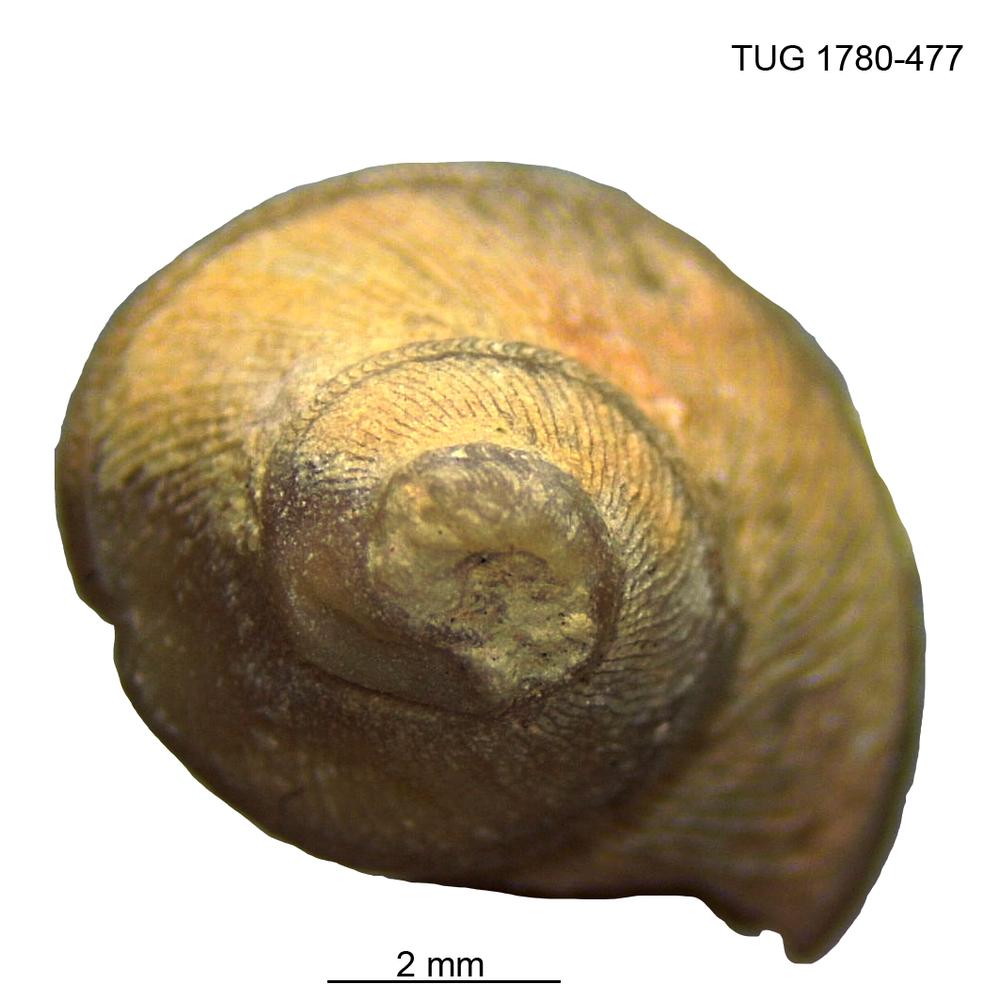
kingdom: Animalia
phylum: Mollusca
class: Gastropoda
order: Pleurotomariida
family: Phanerotrematidae
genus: Brachytomaria
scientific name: Brachytomaria Pleurotomaria baltica
